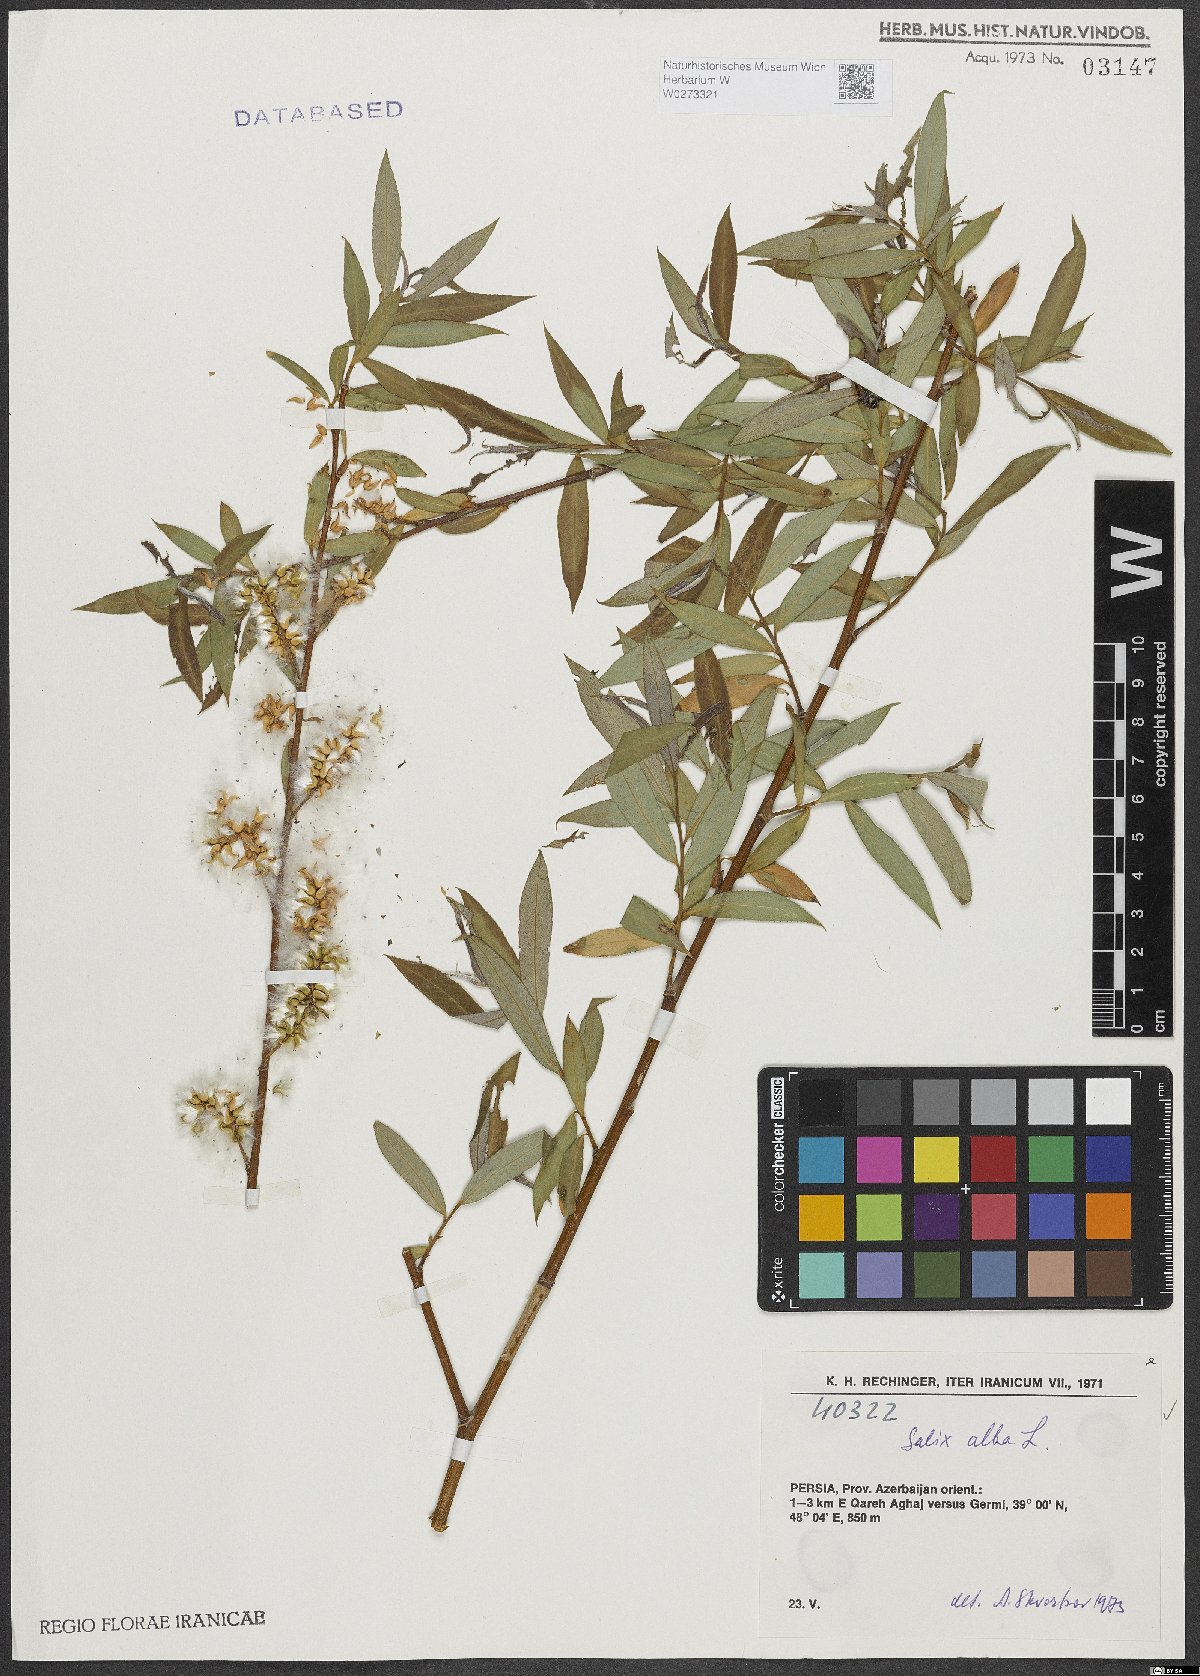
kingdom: Plantae
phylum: Tracheophyta
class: Magnoliopsida
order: Malpighiales
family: Salicaceae
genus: Salix
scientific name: Salix alba
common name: White willow
